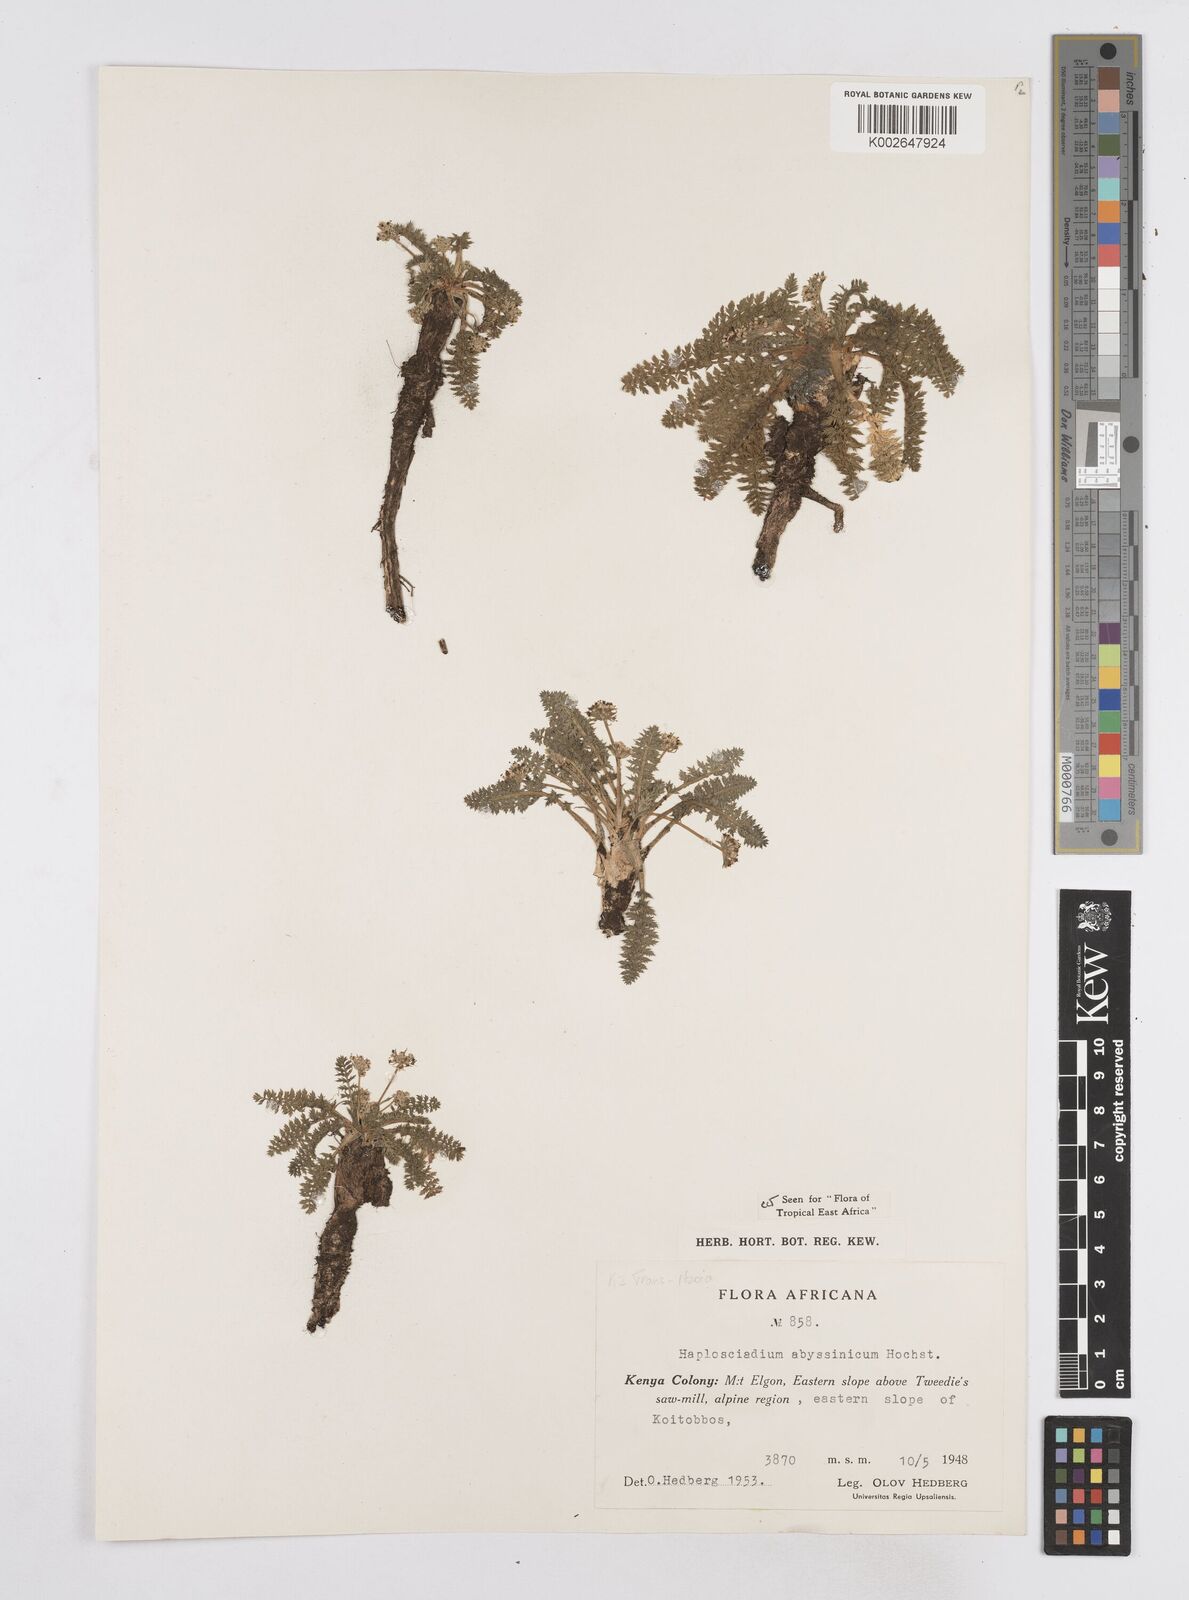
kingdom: Plantae
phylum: Tracheophyta
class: Magnoliopsida
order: Apiales
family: Apiaceae
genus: Haplosciadium
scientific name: Haplosciadium abyssinicum
